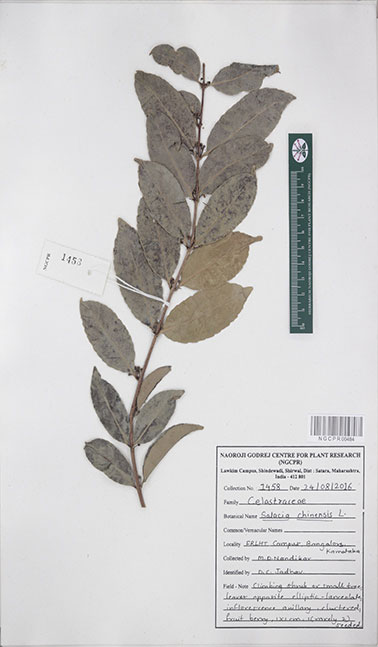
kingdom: Plantae
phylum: Tracheophyta
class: Magnoliopsida
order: Celastrales
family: Celastraceae
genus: Salacia
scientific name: Salacia chinensis
